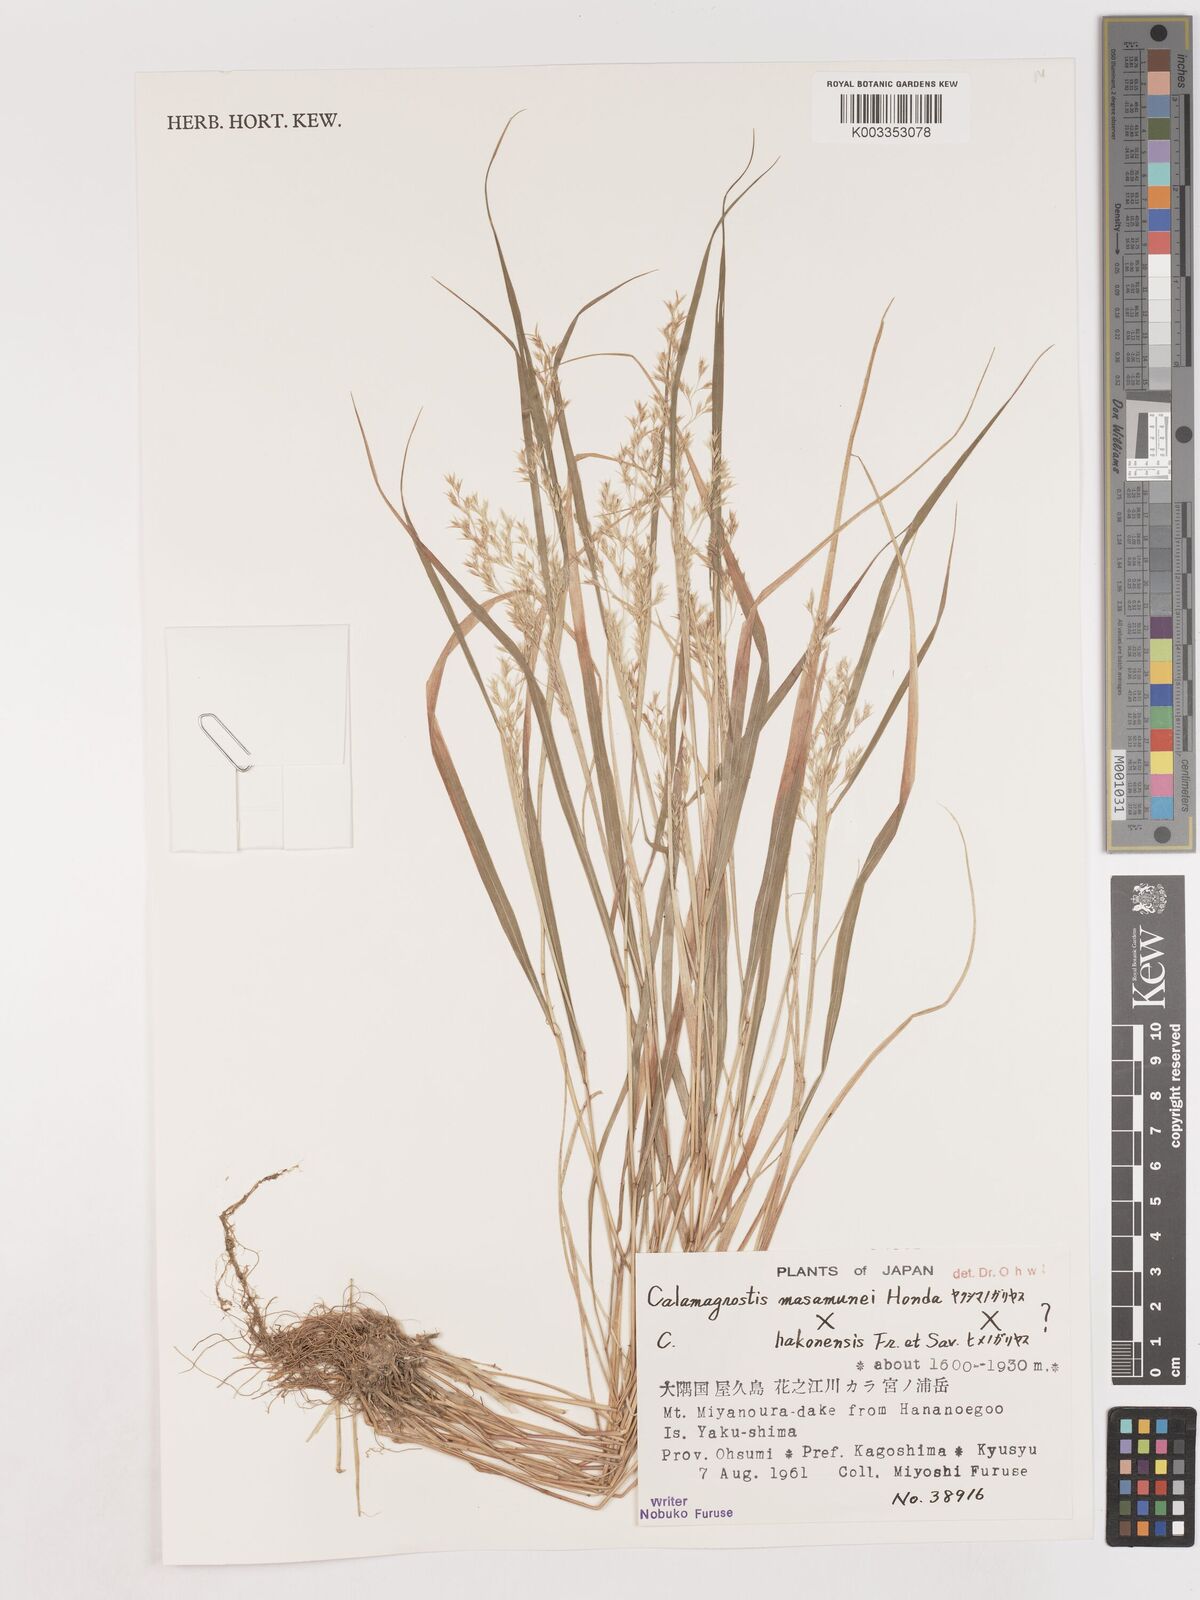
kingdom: Plantae
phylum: Tracheophyta
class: Liliopsida
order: Poales
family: Poaceae
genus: Calamagrostis
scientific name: Calamagrostis hakonensis
